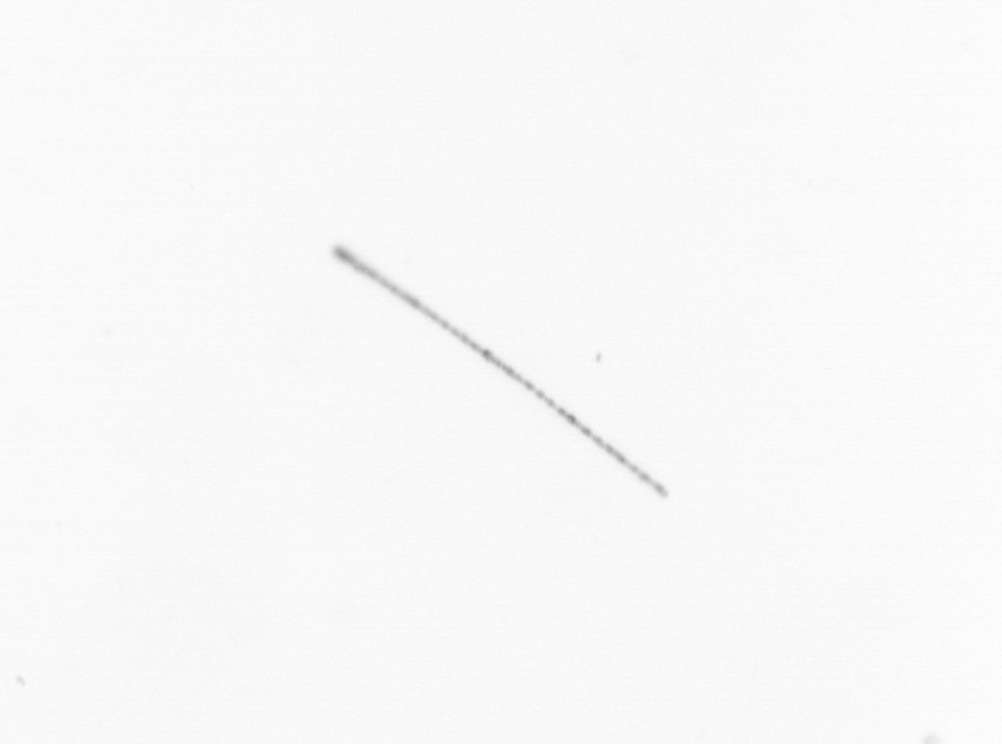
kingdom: Chromista
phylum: Ochrophyta
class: Bacillariophyceae
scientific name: Bacillariophyceae
